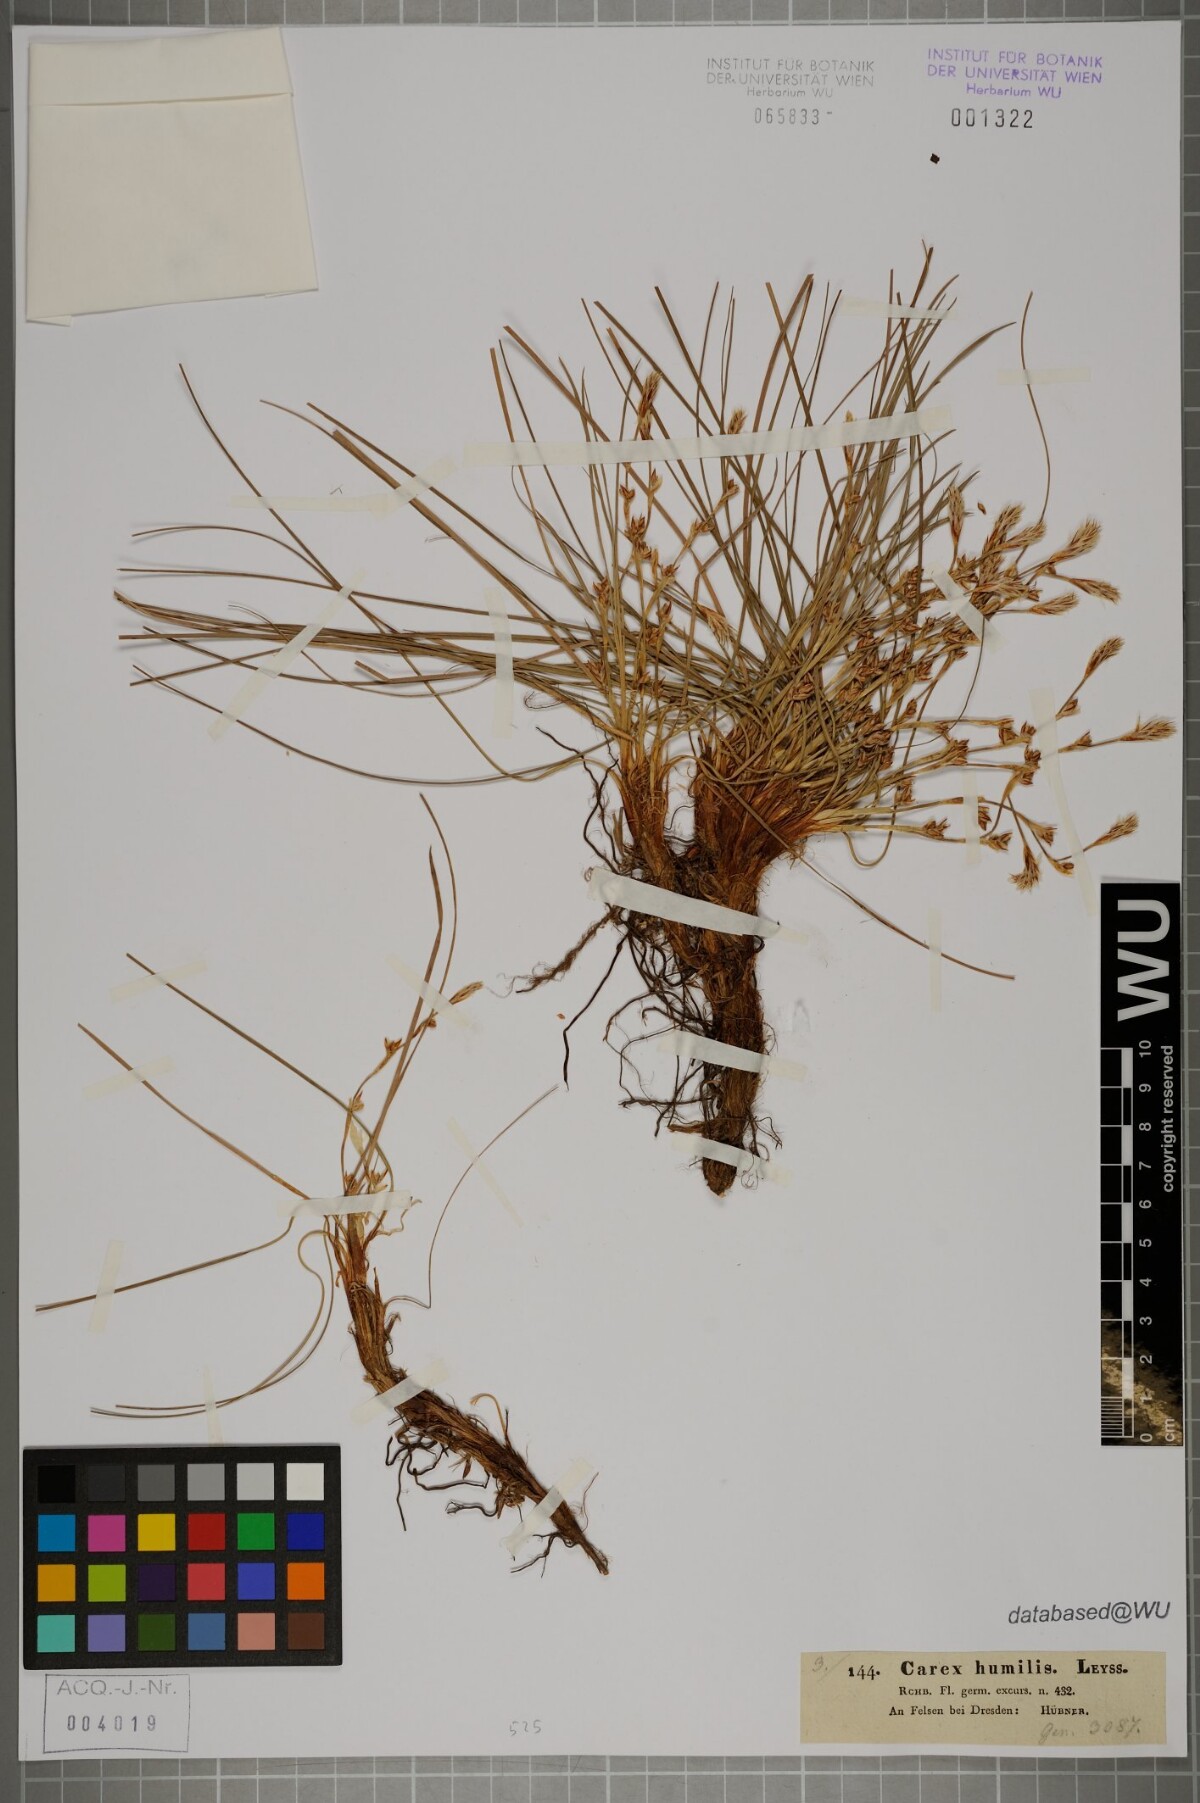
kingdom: Plantae
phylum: Tracheophyta
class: Liliopsida
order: Poales
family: Cyperaceae
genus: Carex
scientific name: Carex humilis
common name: Dwarf sedge
